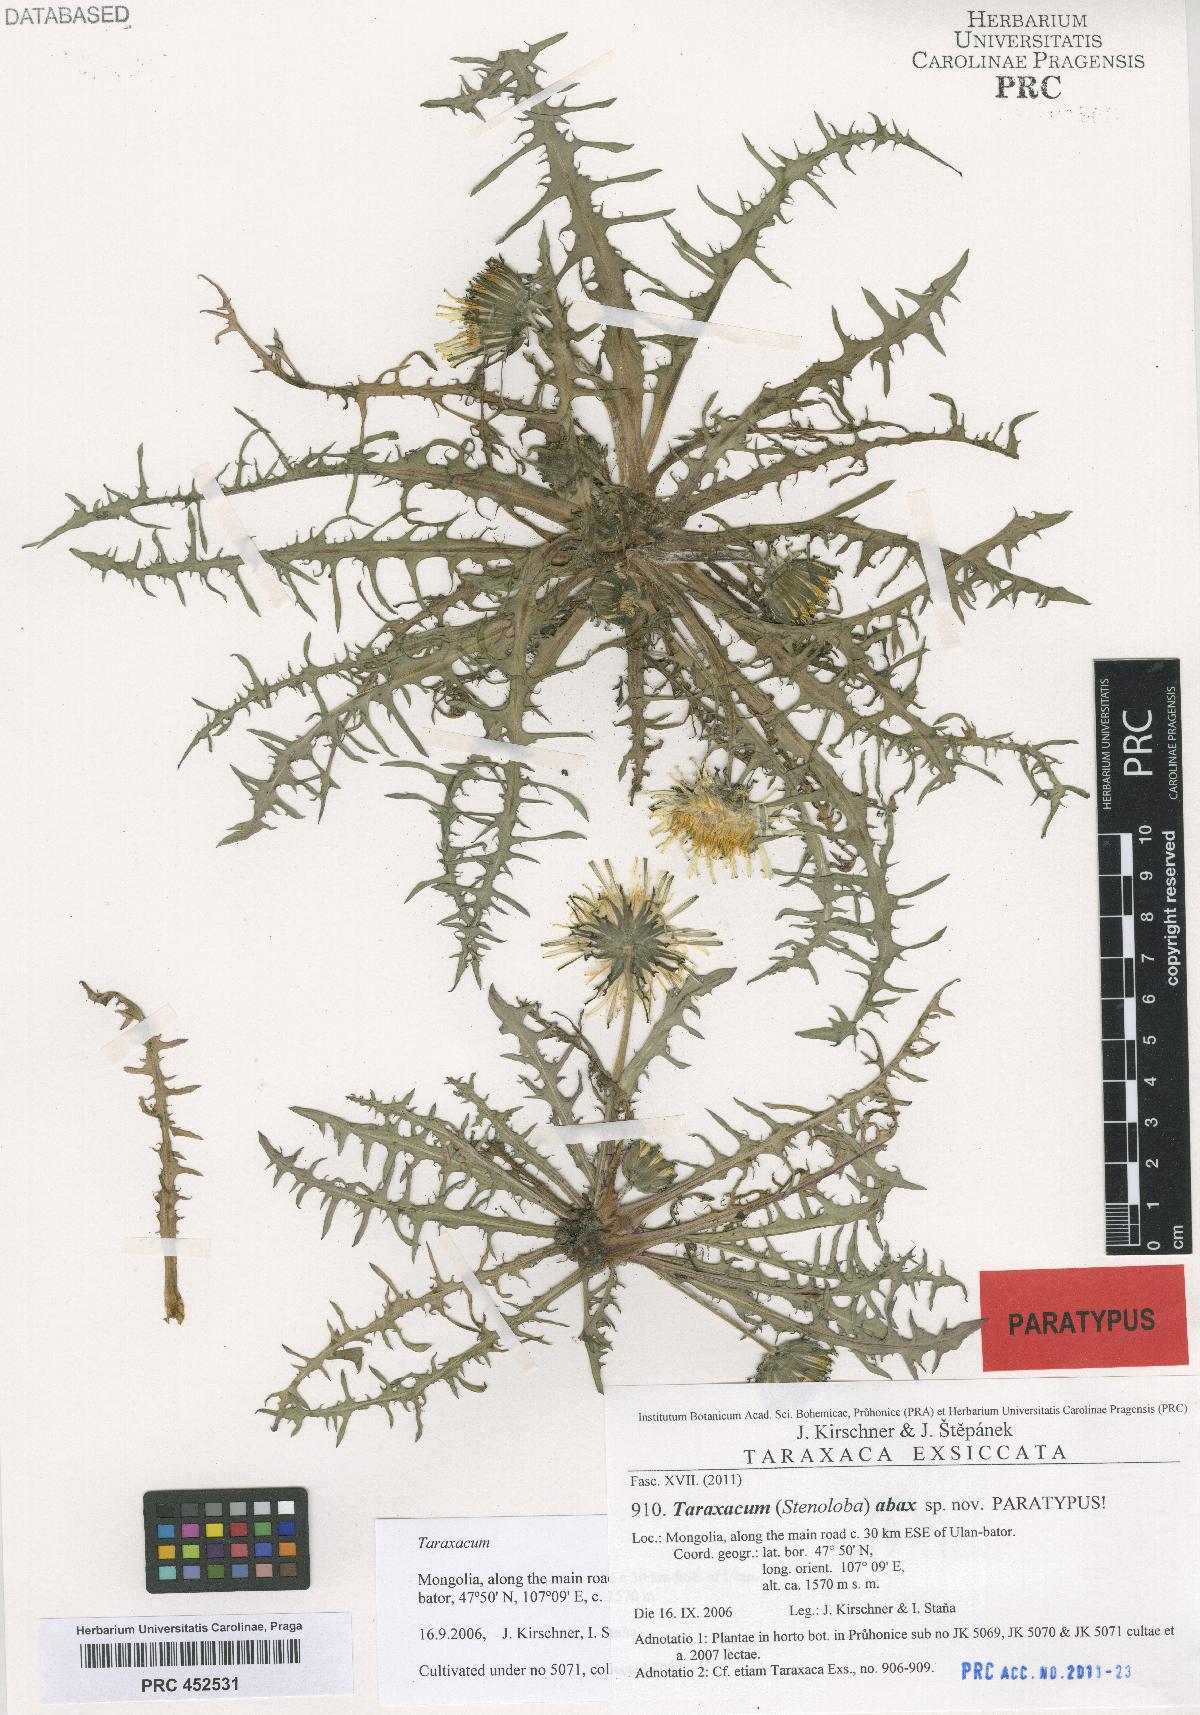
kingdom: Plantae
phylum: Tracheophyta
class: Magnoliopsida
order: Asterales
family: Asteraceae
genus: Taraxacum
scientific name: Taraxacum abax
